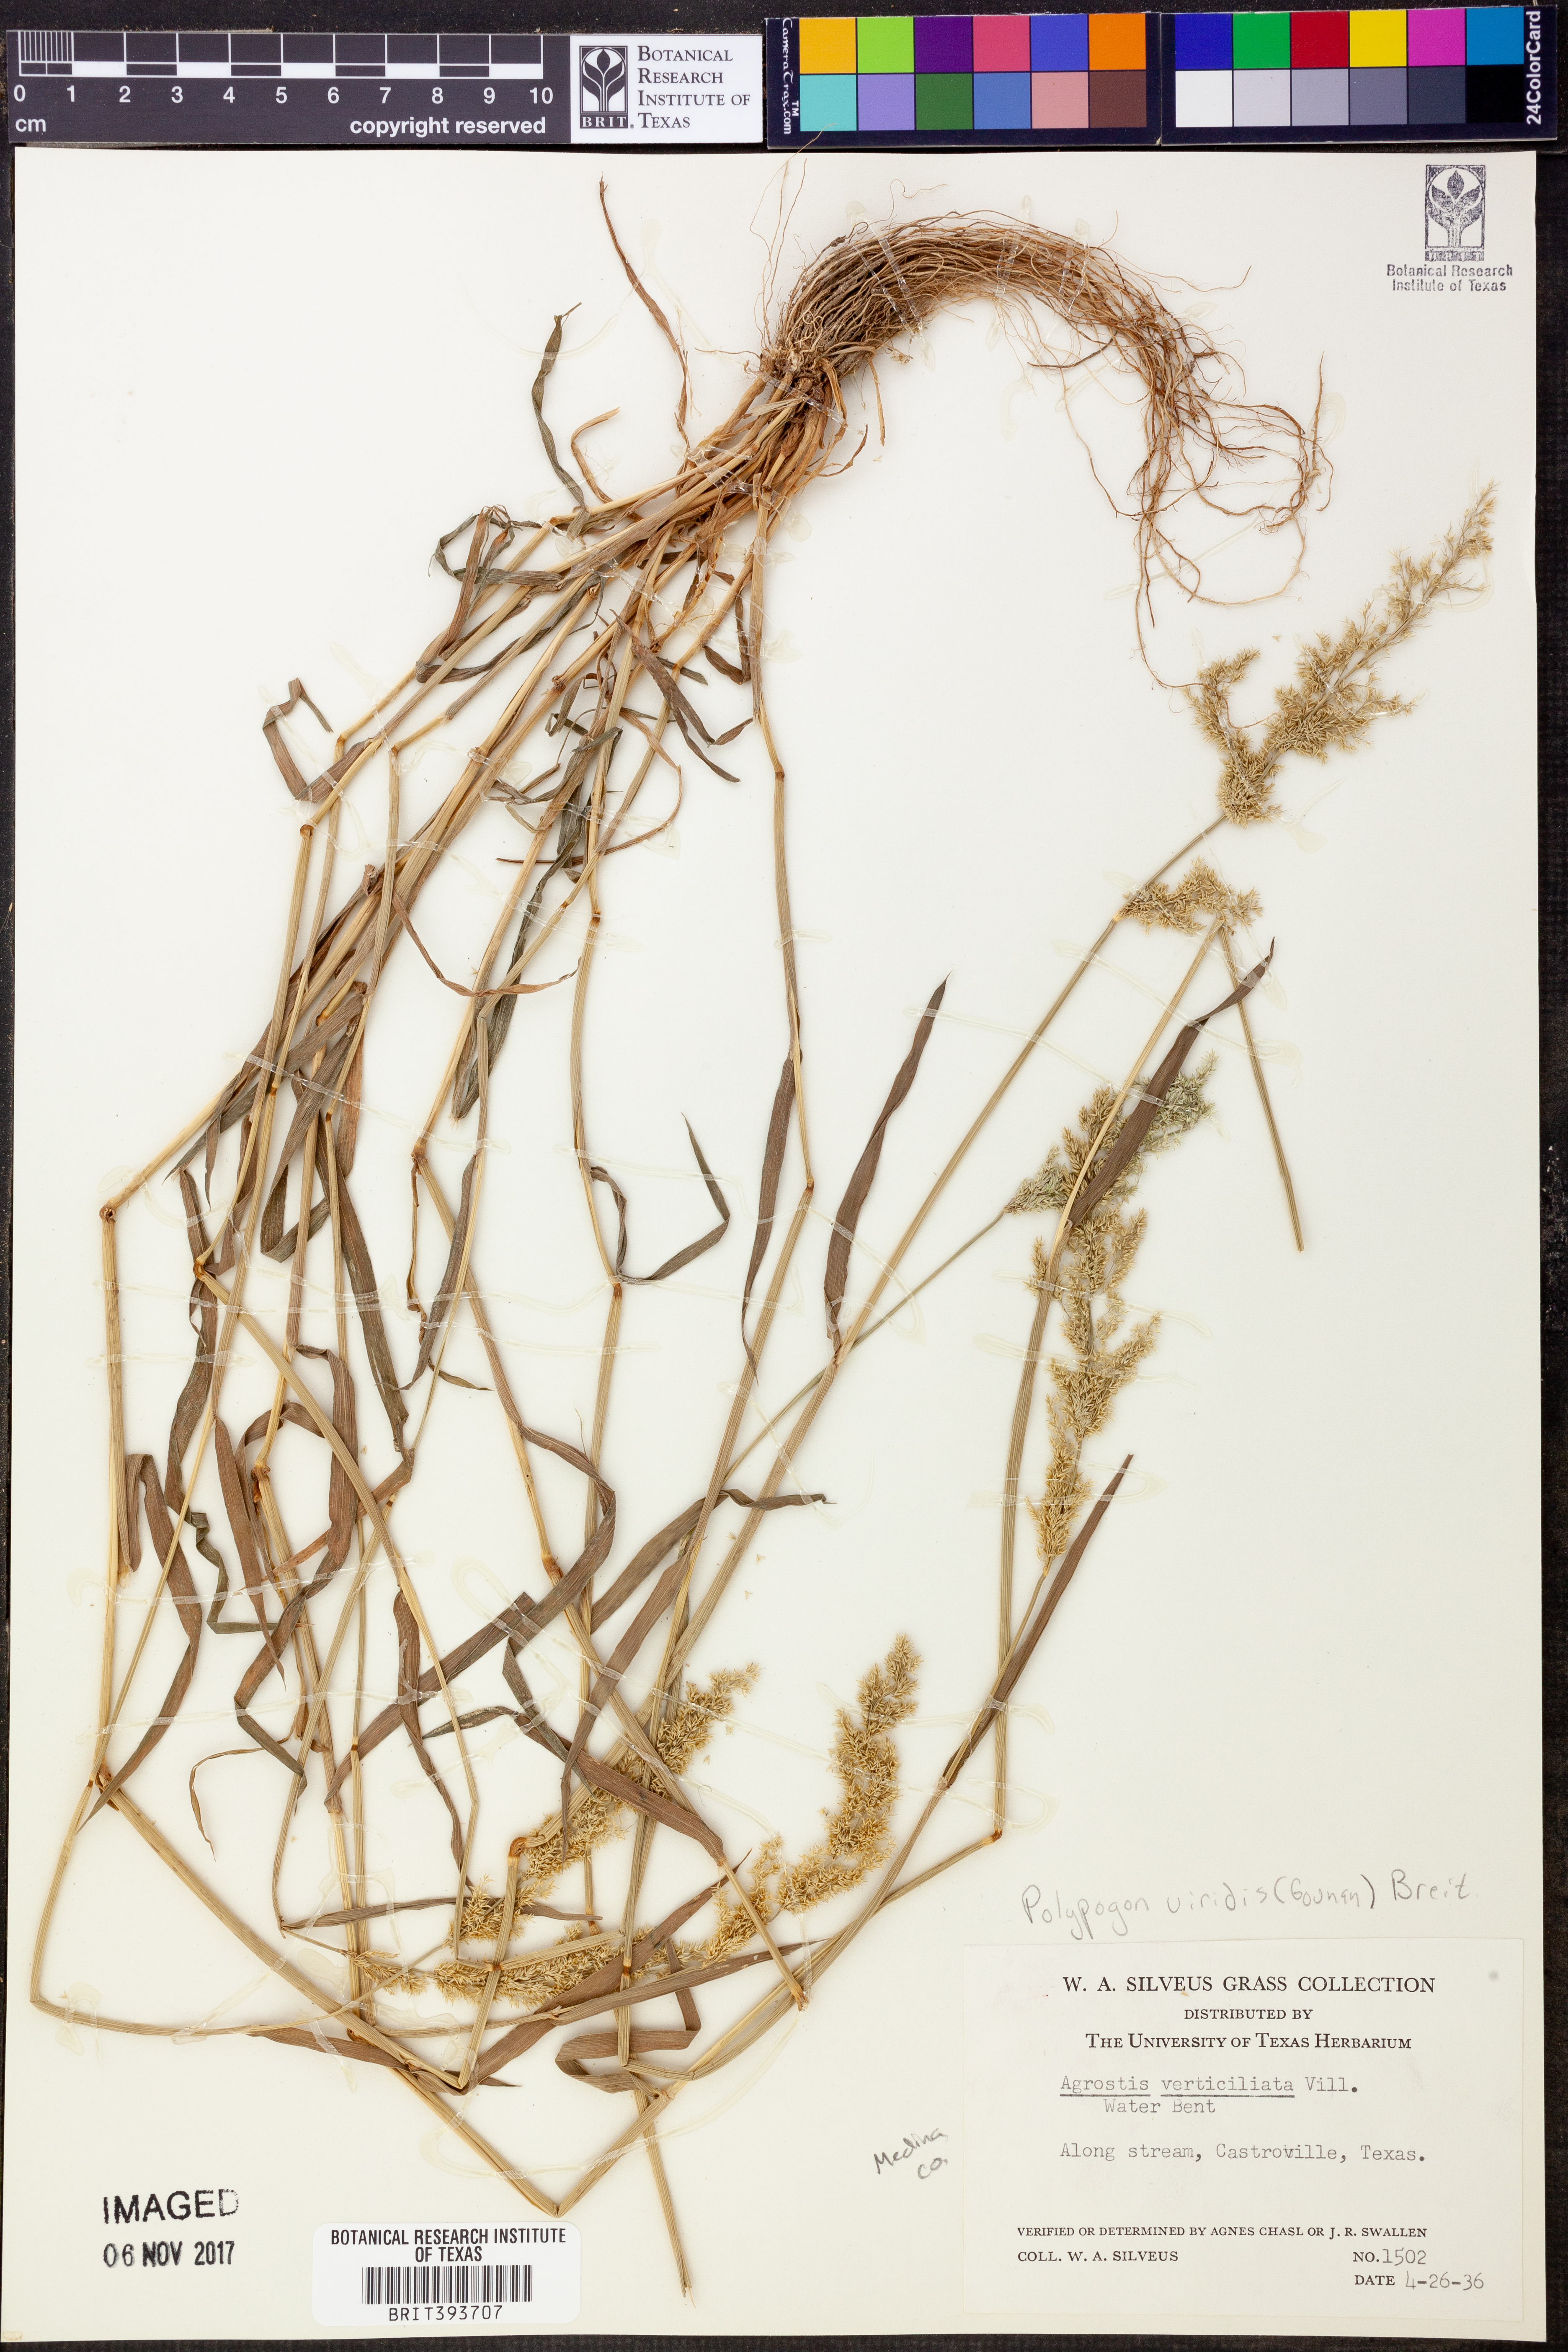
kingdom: Plantae
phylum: Tracheophyta
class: Liliopsida
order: Poales
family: Poaceae
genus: Polypogon
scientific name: Polypogon viridis
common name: Water bent
